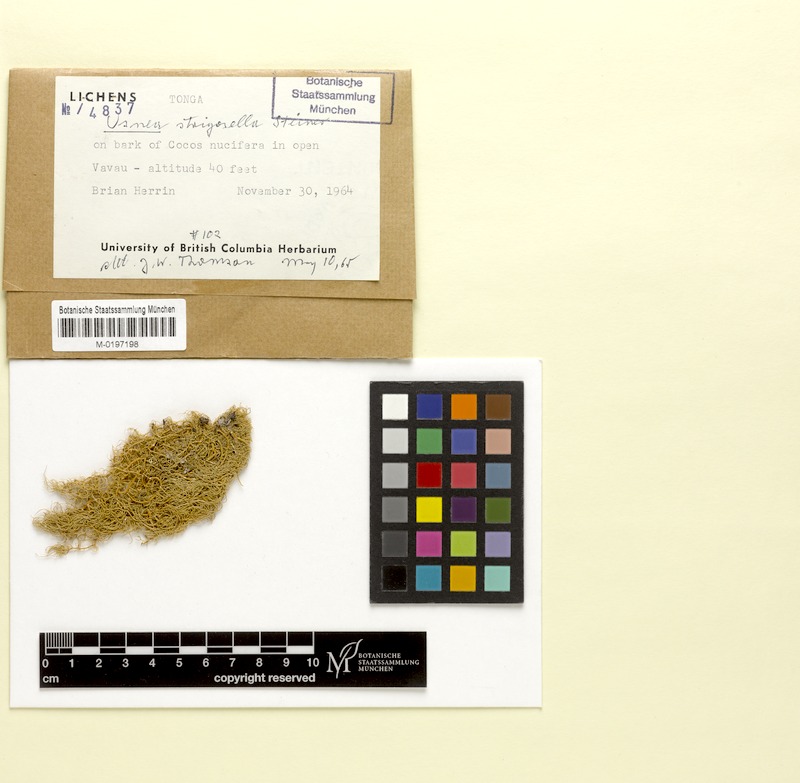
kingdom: Fungi
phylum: Ascomycota
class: Lecanoromycetes
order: Lecanorales
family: Parmeliaceae
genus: Usnea
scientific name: Usnea strigosella
